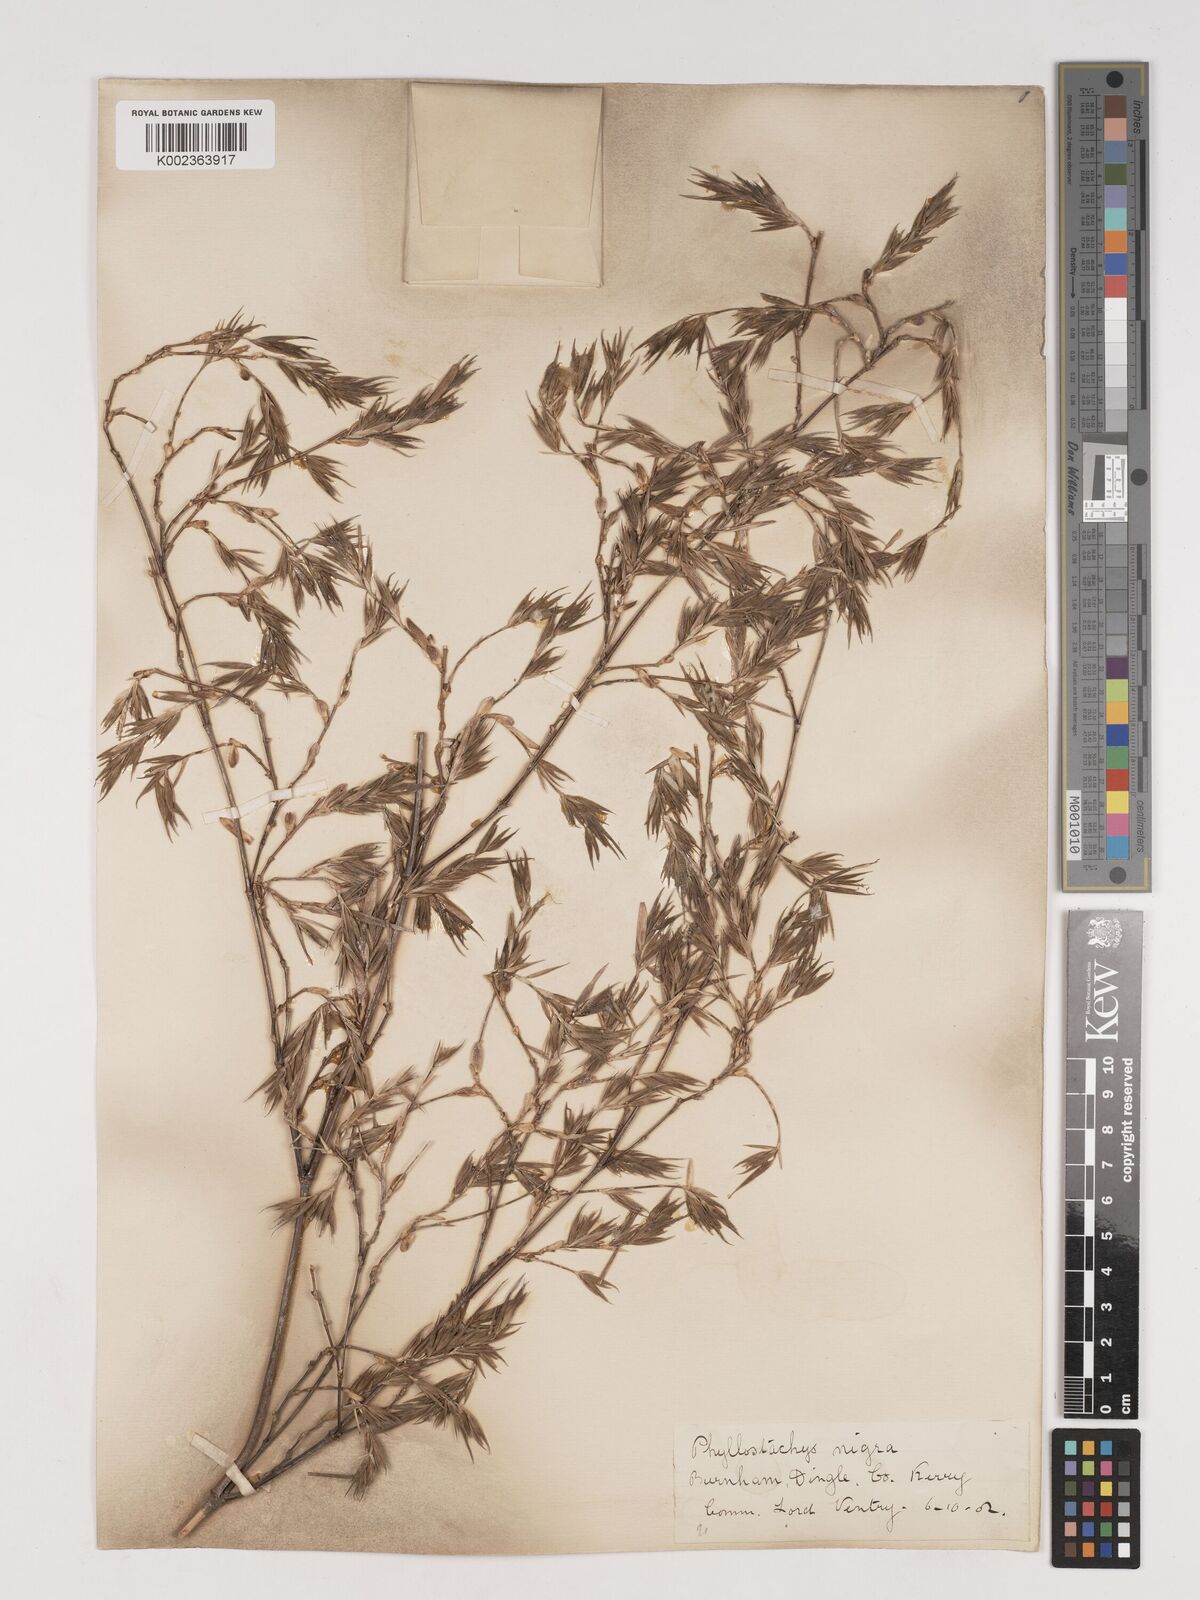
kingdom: Plantae
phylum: Tracheophyta
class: Liliopsida
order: Poales
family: Poaceae
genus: Phyllostachys
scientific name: Phyllostachys nigra
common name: Black bamboo
